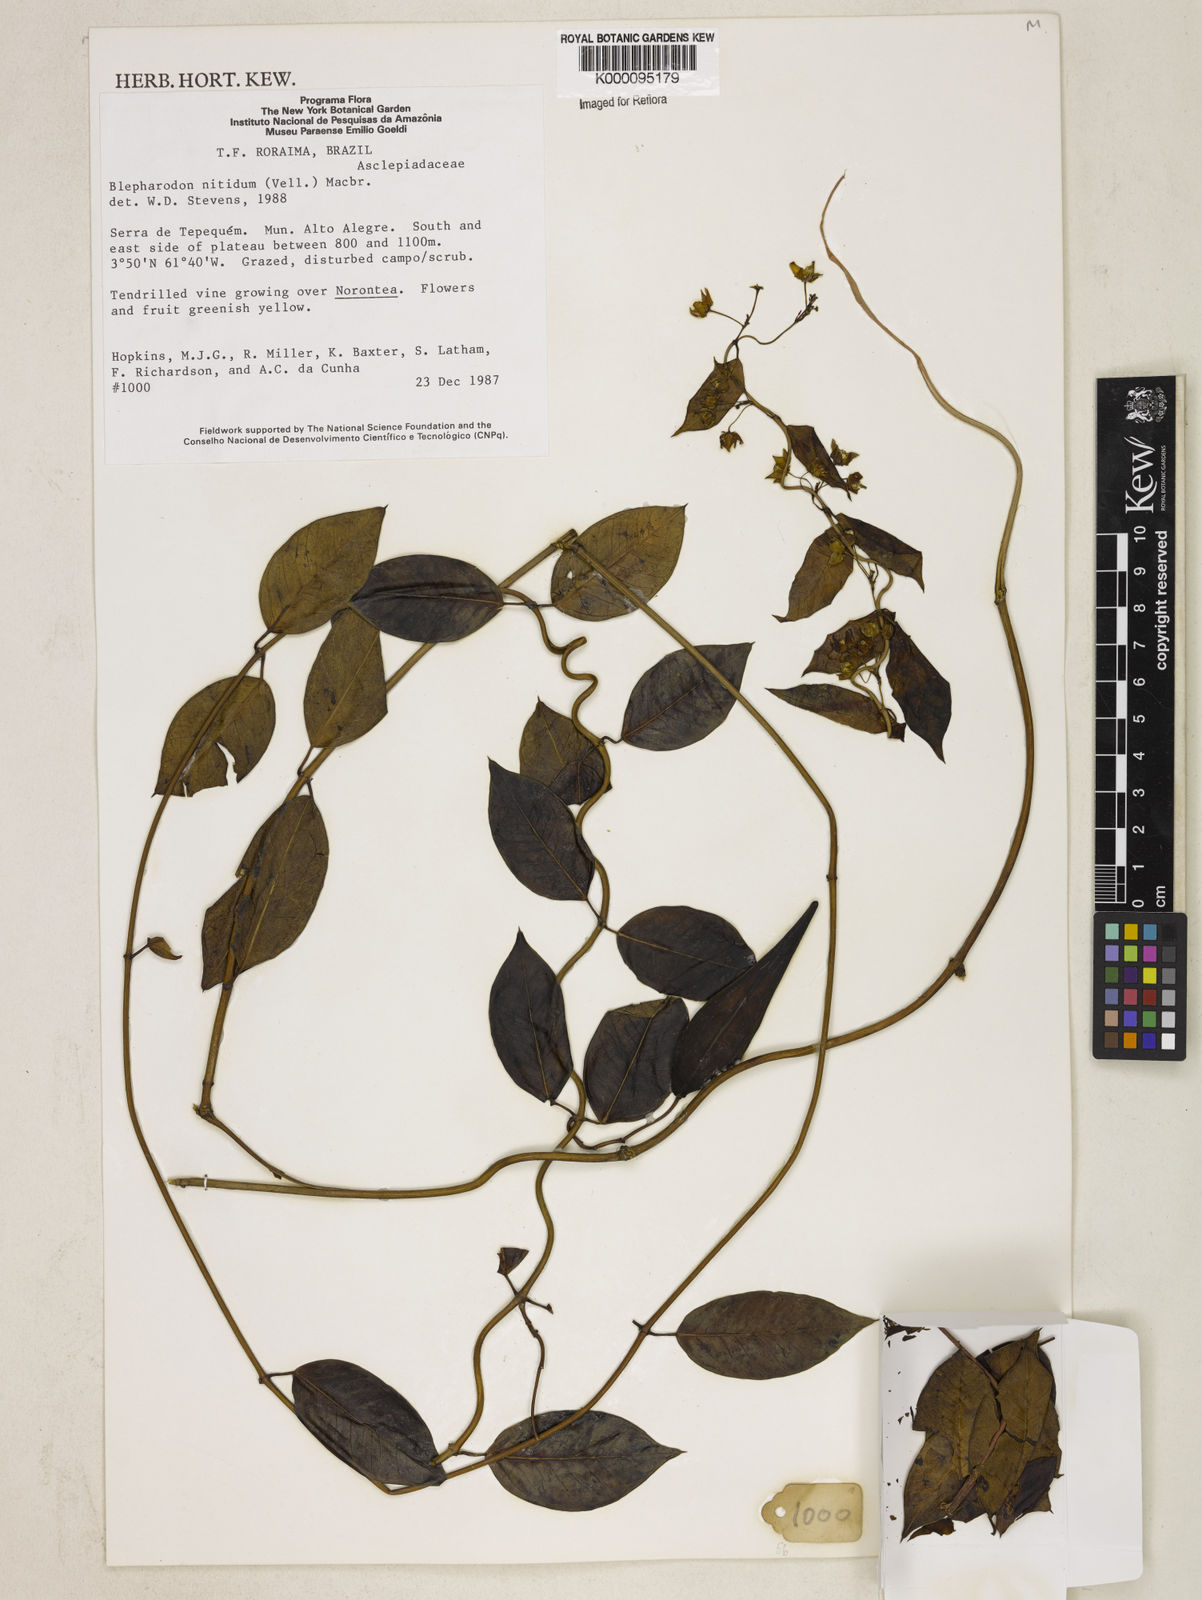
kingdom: Plantae
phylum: Tracheophyta
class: Magnoliopsida
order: Gentianales
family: Apocynaceae
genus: Blepharodon
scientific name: Blepharodon pictum
